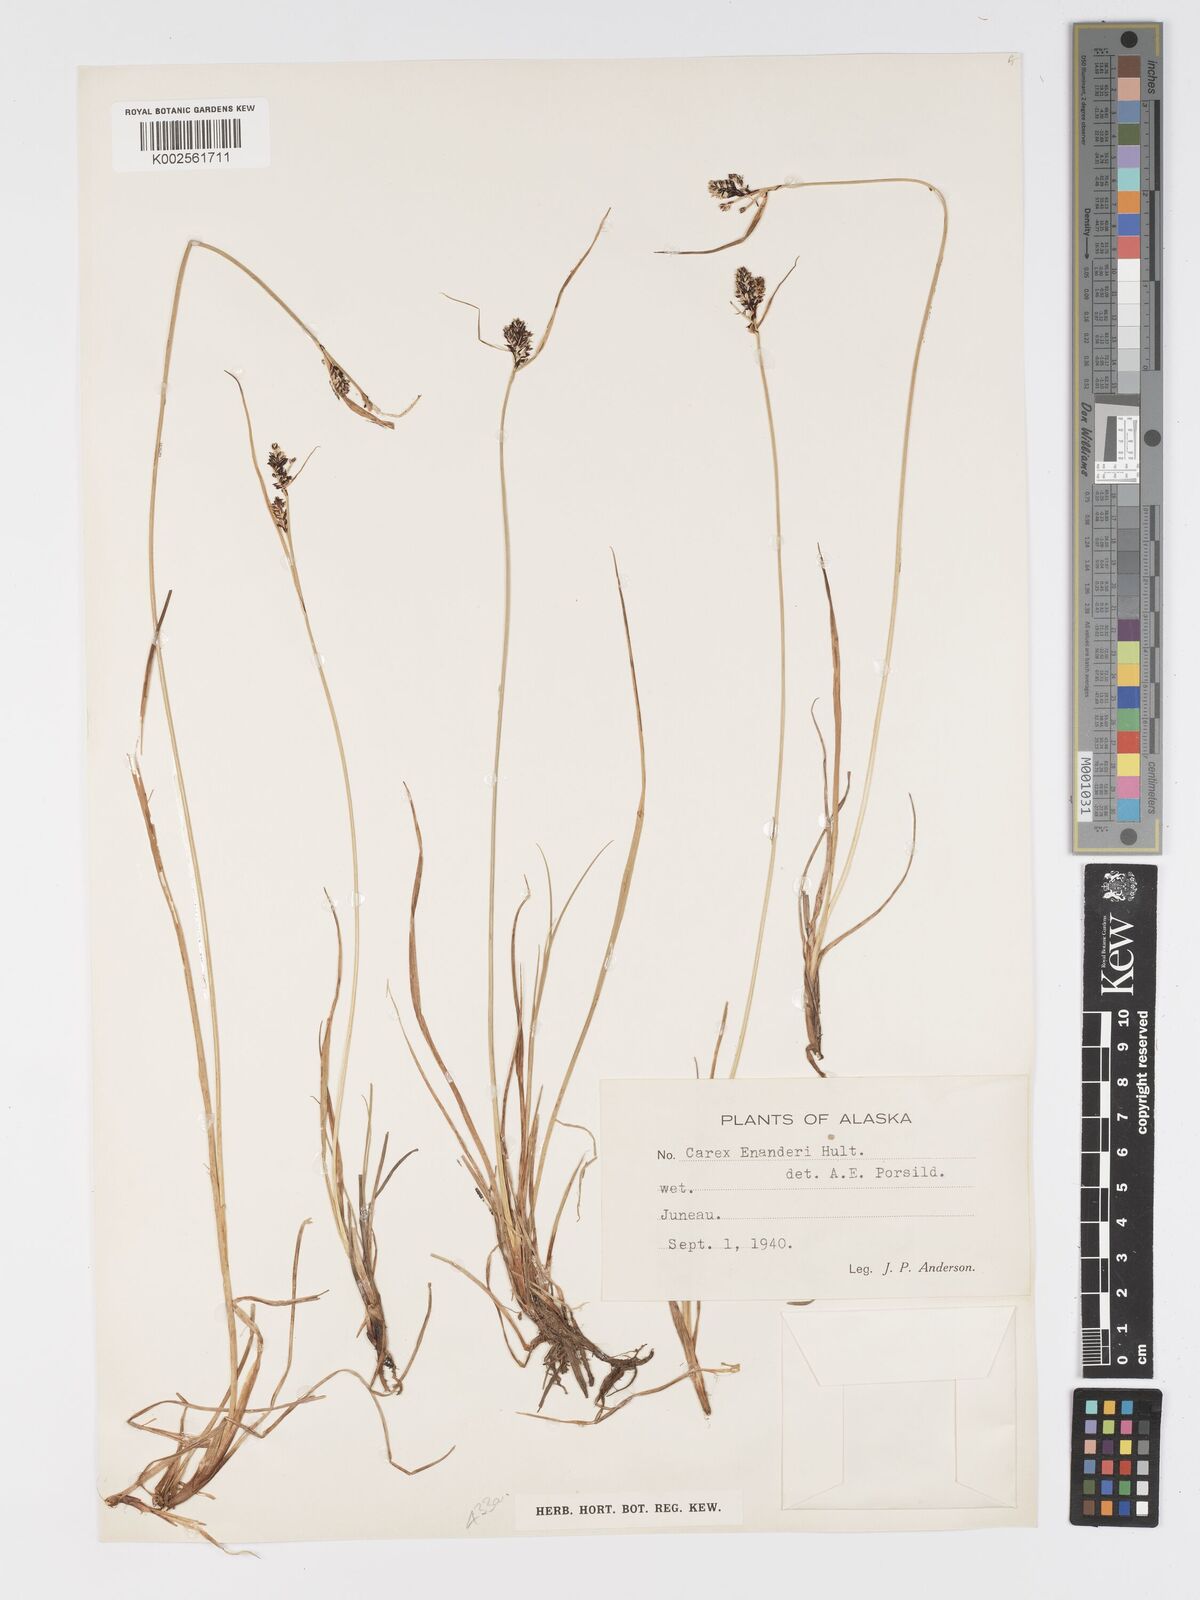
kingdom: Plantae
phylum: Tracheophyta
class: Liliopsida
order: Poales
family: Cyperaceae
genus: Carex
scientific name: Carex enanderi
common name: Enander's sedge
